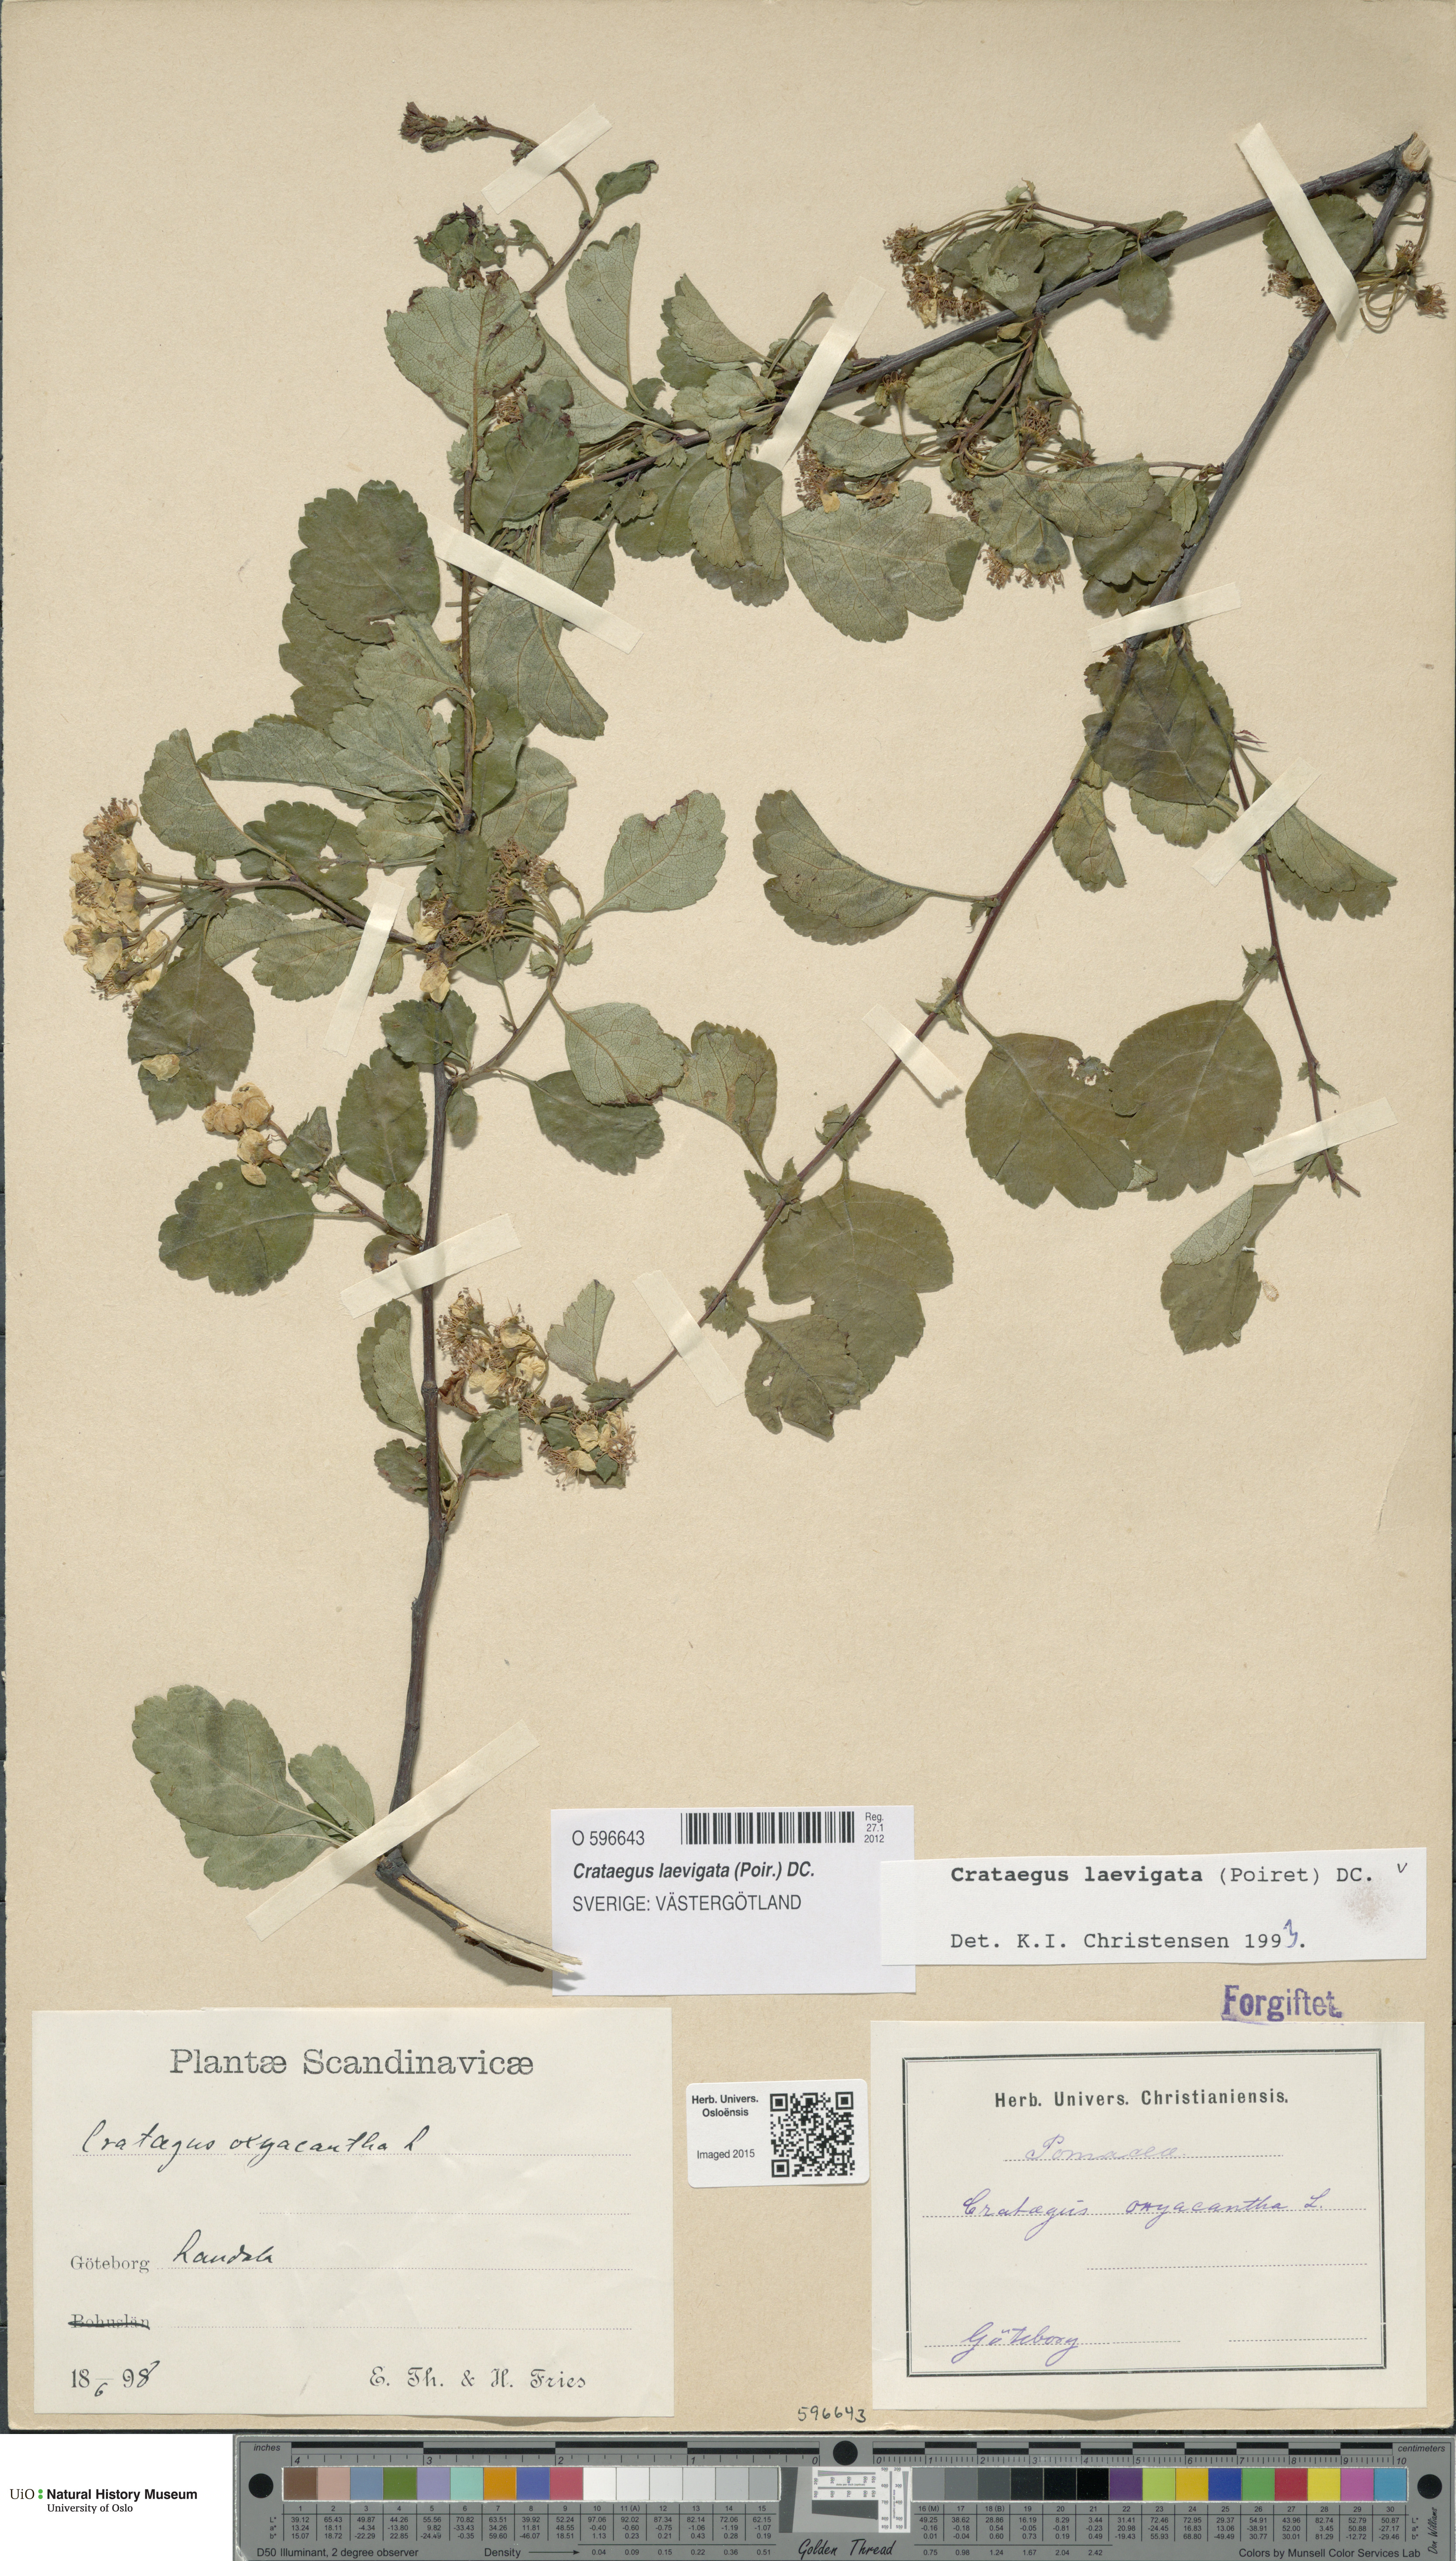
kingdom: Plantae
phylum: Tracheophyta
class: Magnoliopsida
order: Rosales
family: Rosaceae
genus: Crataegus
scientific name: Crataegus laevigata
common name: Midland hawthorn
